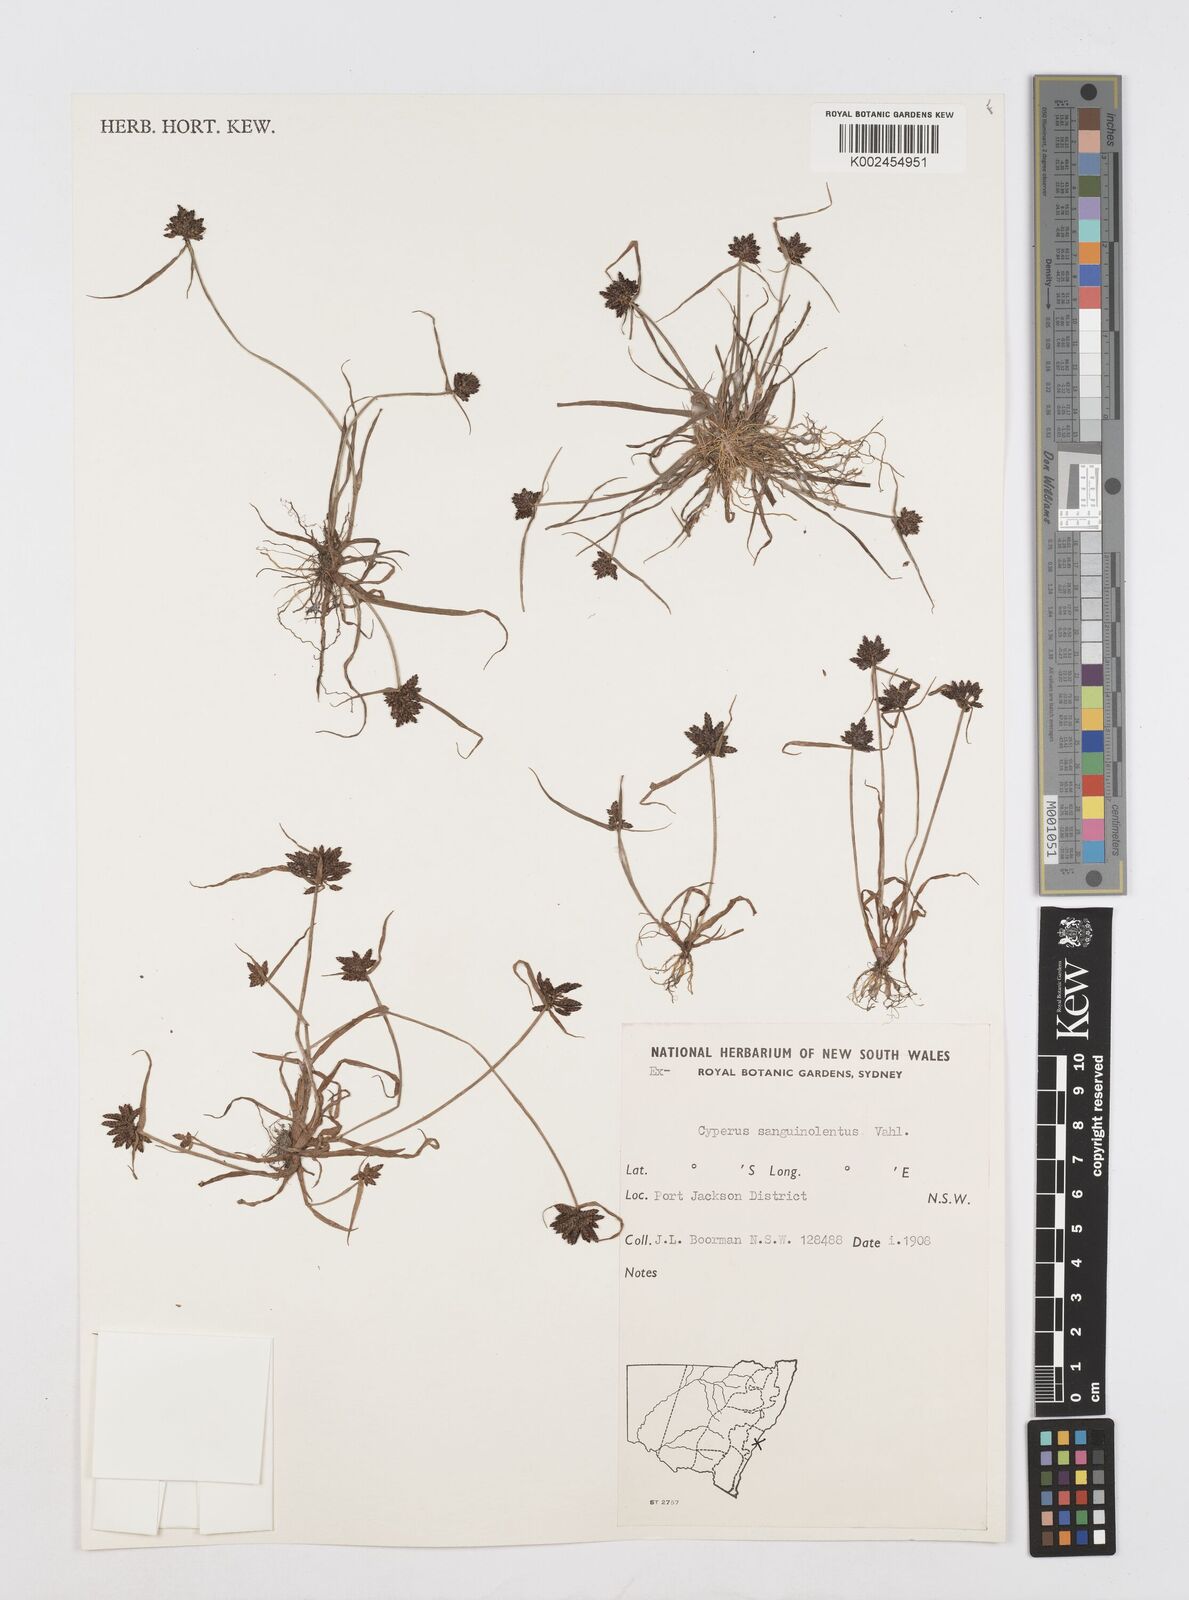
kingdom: Plantae
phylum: Tracheophyta
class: Liliopsida
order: Poales
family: Cyperaceae
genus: Cyperus
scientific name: Cyperus sanguinolentus
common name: Purpleglume flatsedge
